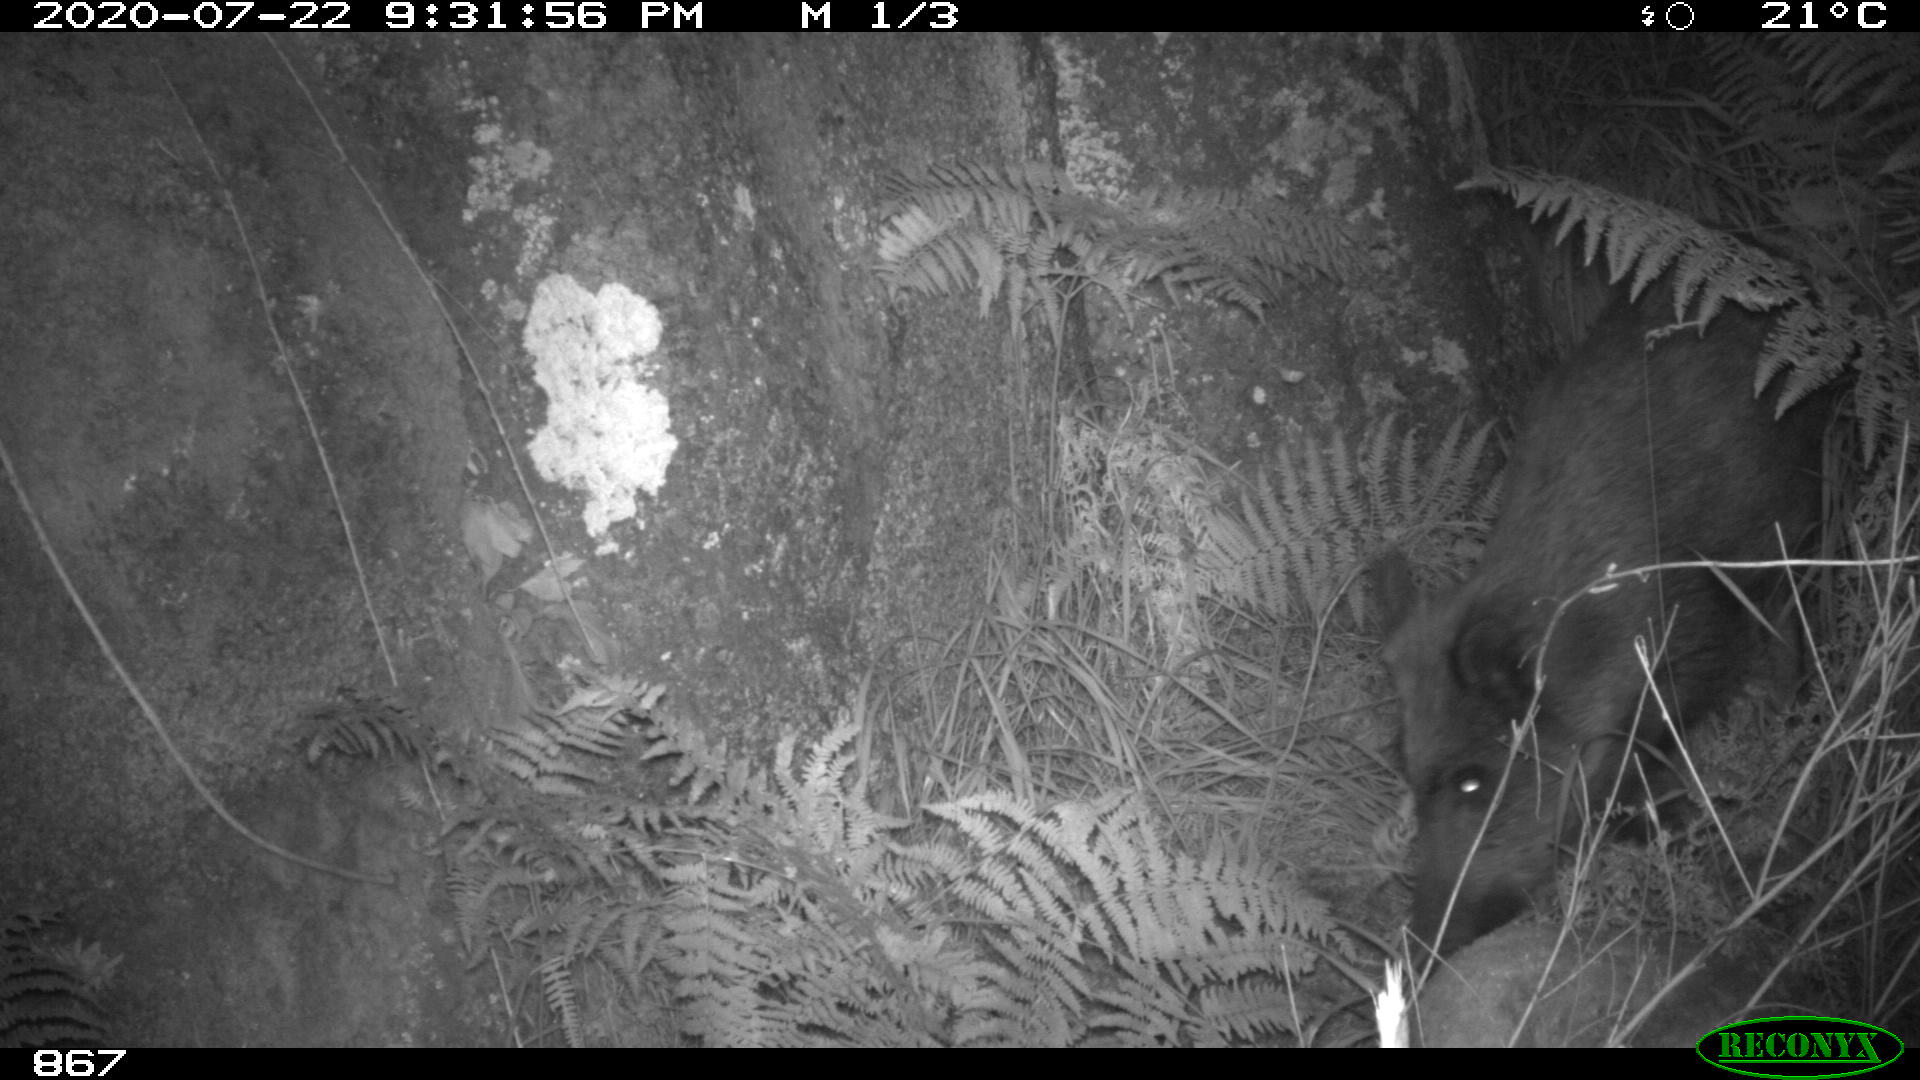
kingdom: Animalia
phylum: Chordata
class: Mammalia
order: Artiodactyla
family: Suidae
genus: Sus
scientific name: Sus scrofa
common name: Wild boar
